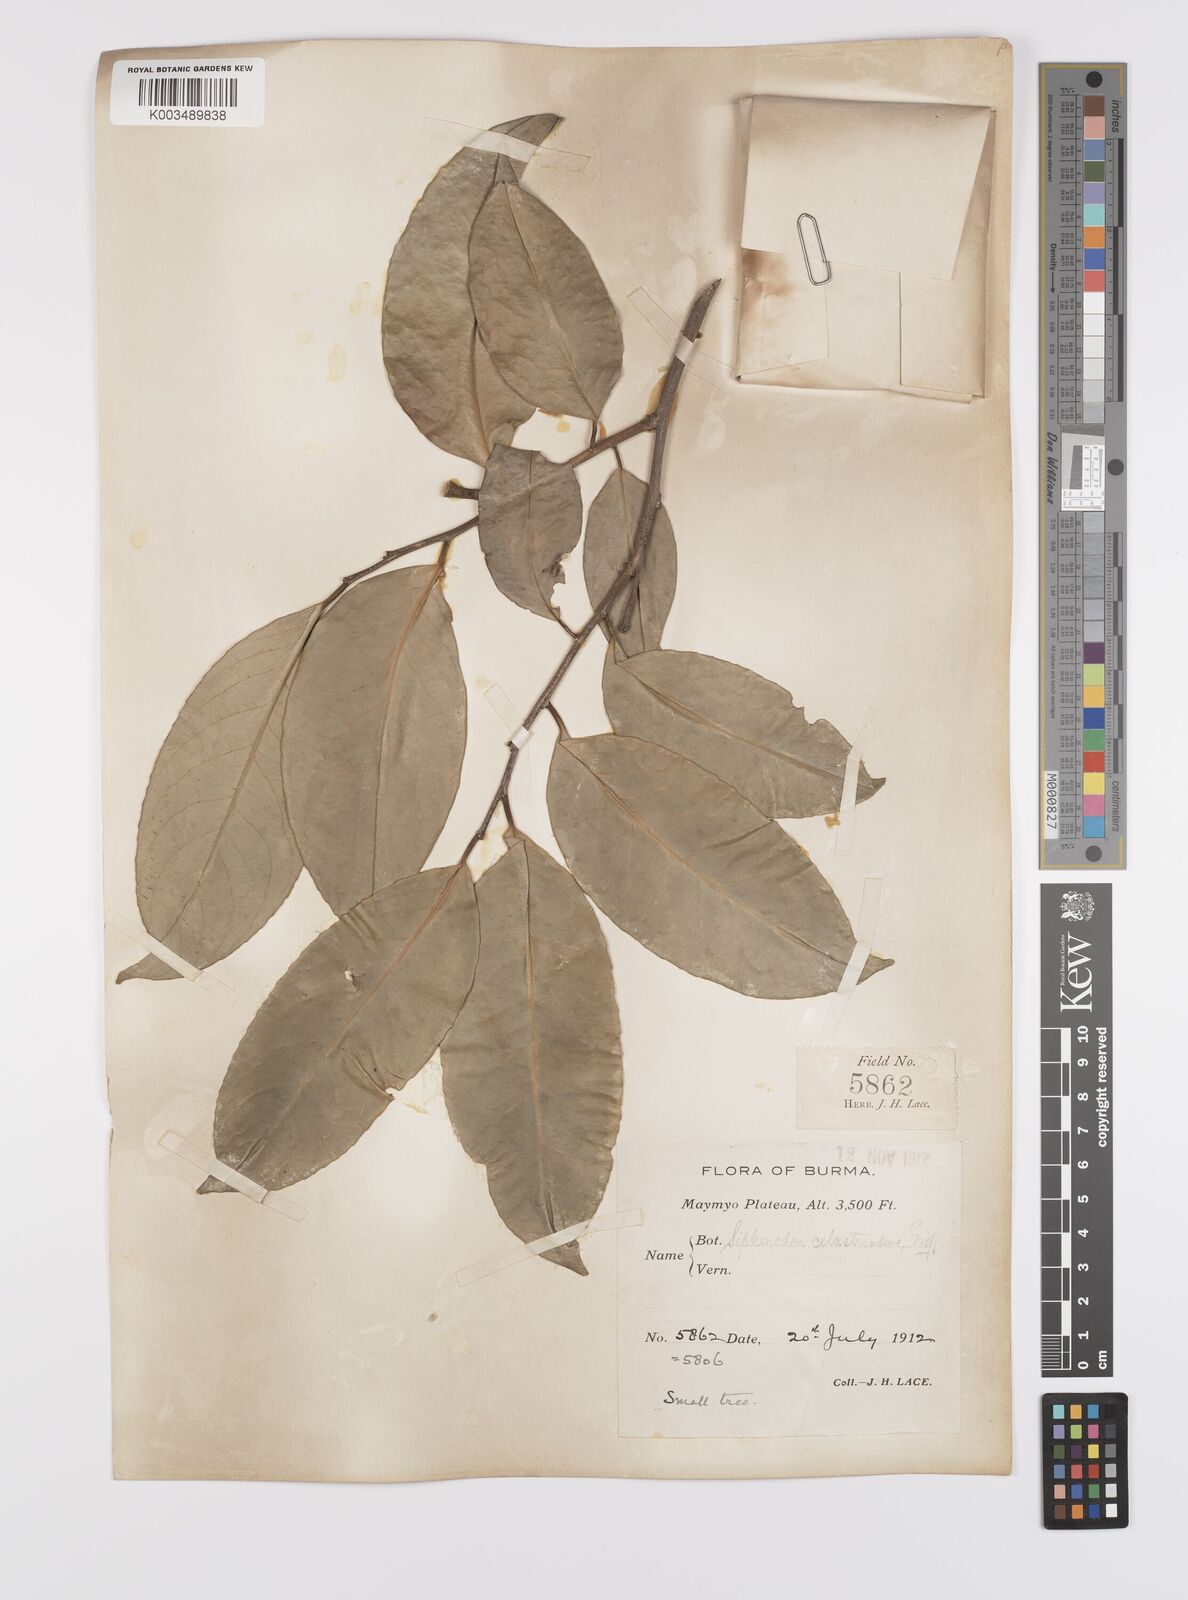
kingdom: Plantae
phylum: Tracheophyta
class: Magnoliopsida
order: Celastrales
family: Celastraceae
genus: Siphonodon
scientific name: Siphonodon celastrineus
